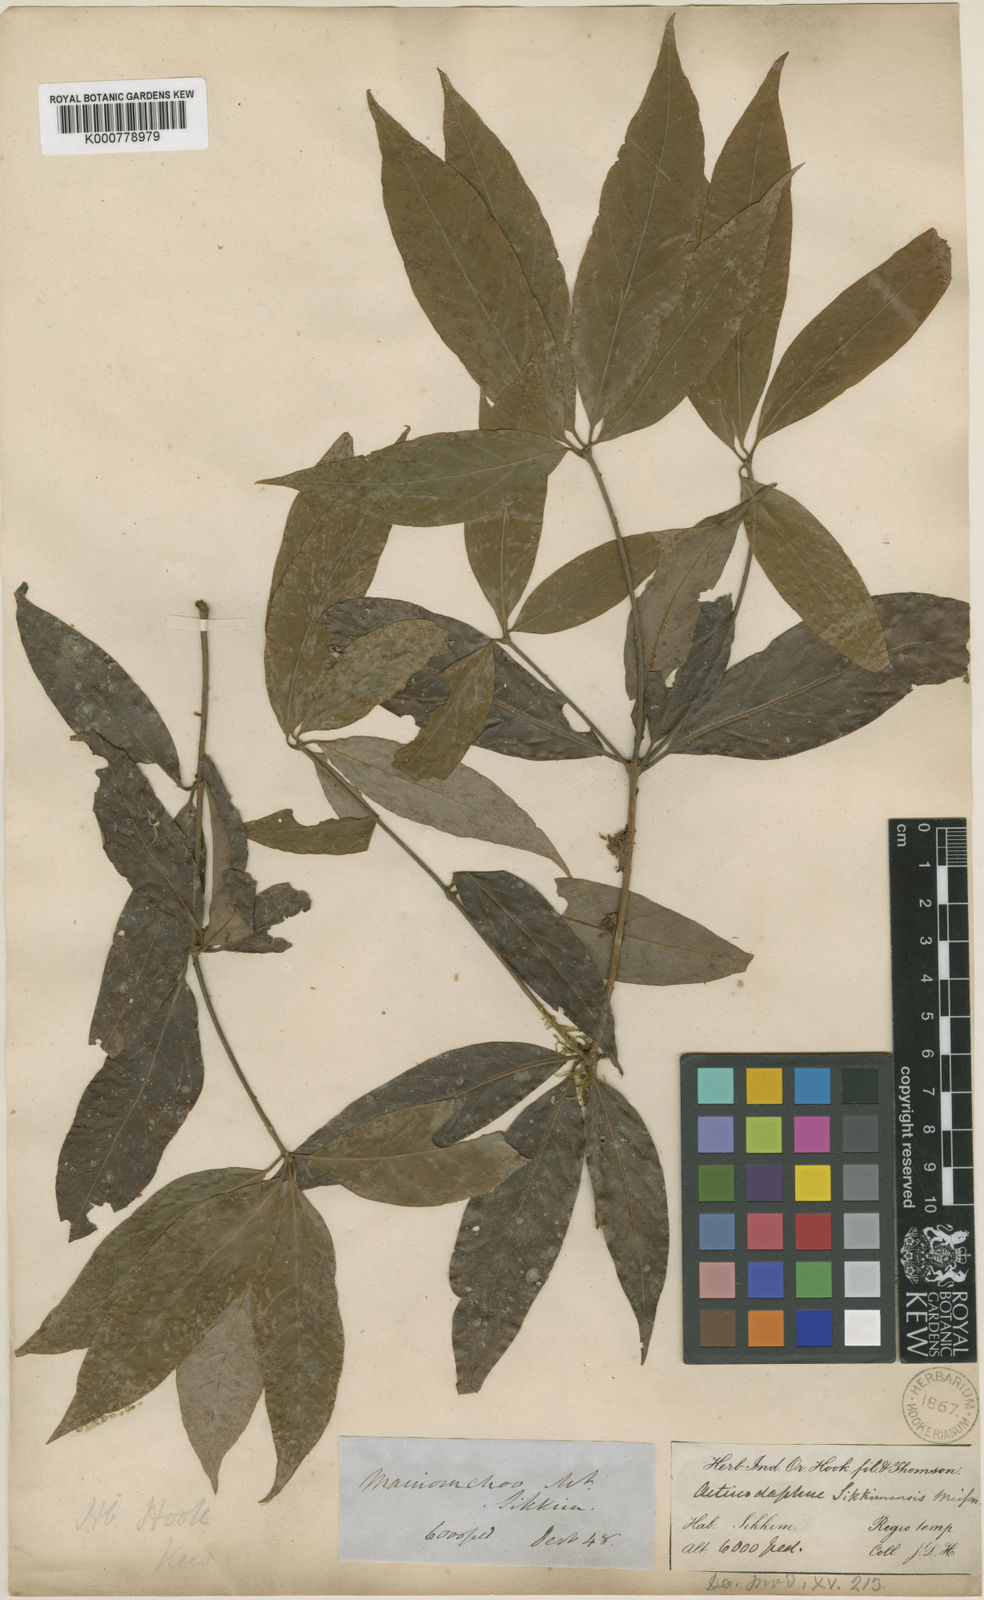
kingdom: Plantae
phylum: Tracheophyta
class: Magnoliopsida
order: Laurales
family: Lauraceae
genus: Actinodaphne
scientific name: Actinodaphne sikkimensis
